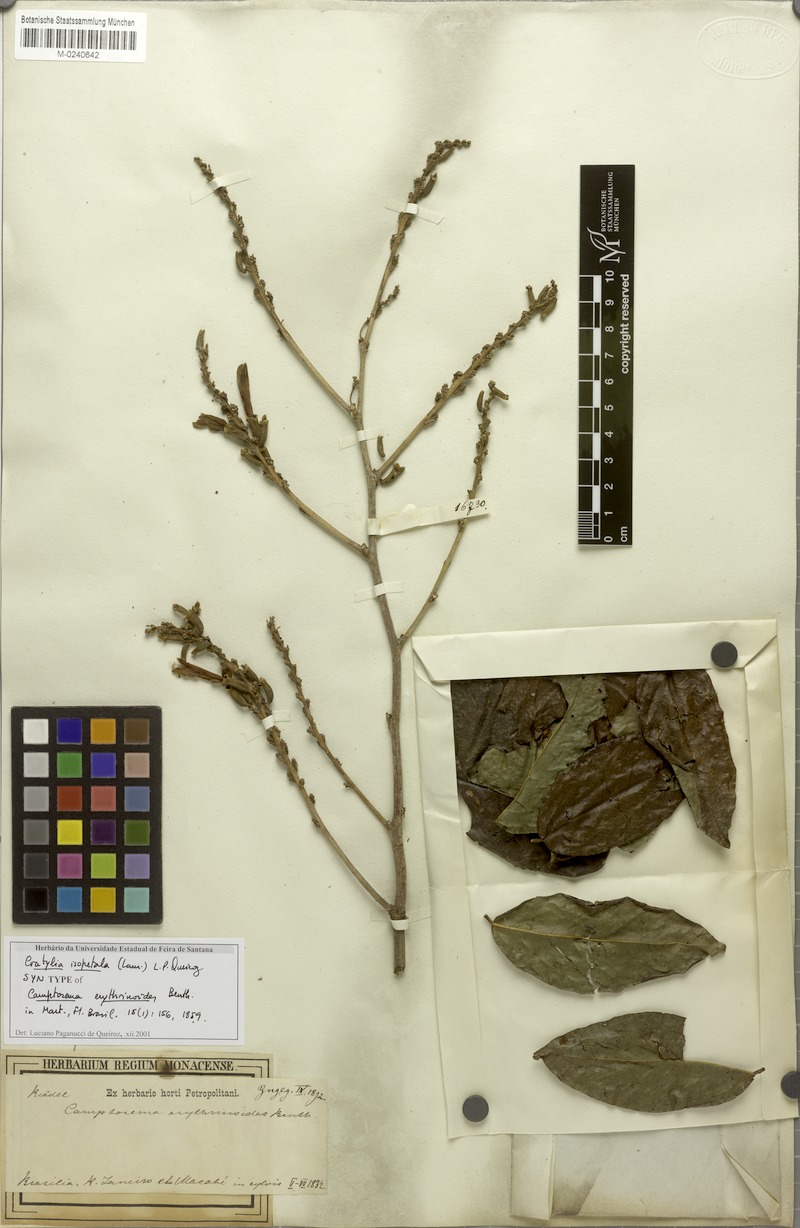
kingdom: Plantae
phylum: Tracheophyta
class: Magnoliopsida
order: Fabales
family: Fabaceae
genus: Cratylia
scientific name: Cratylia isopetala
